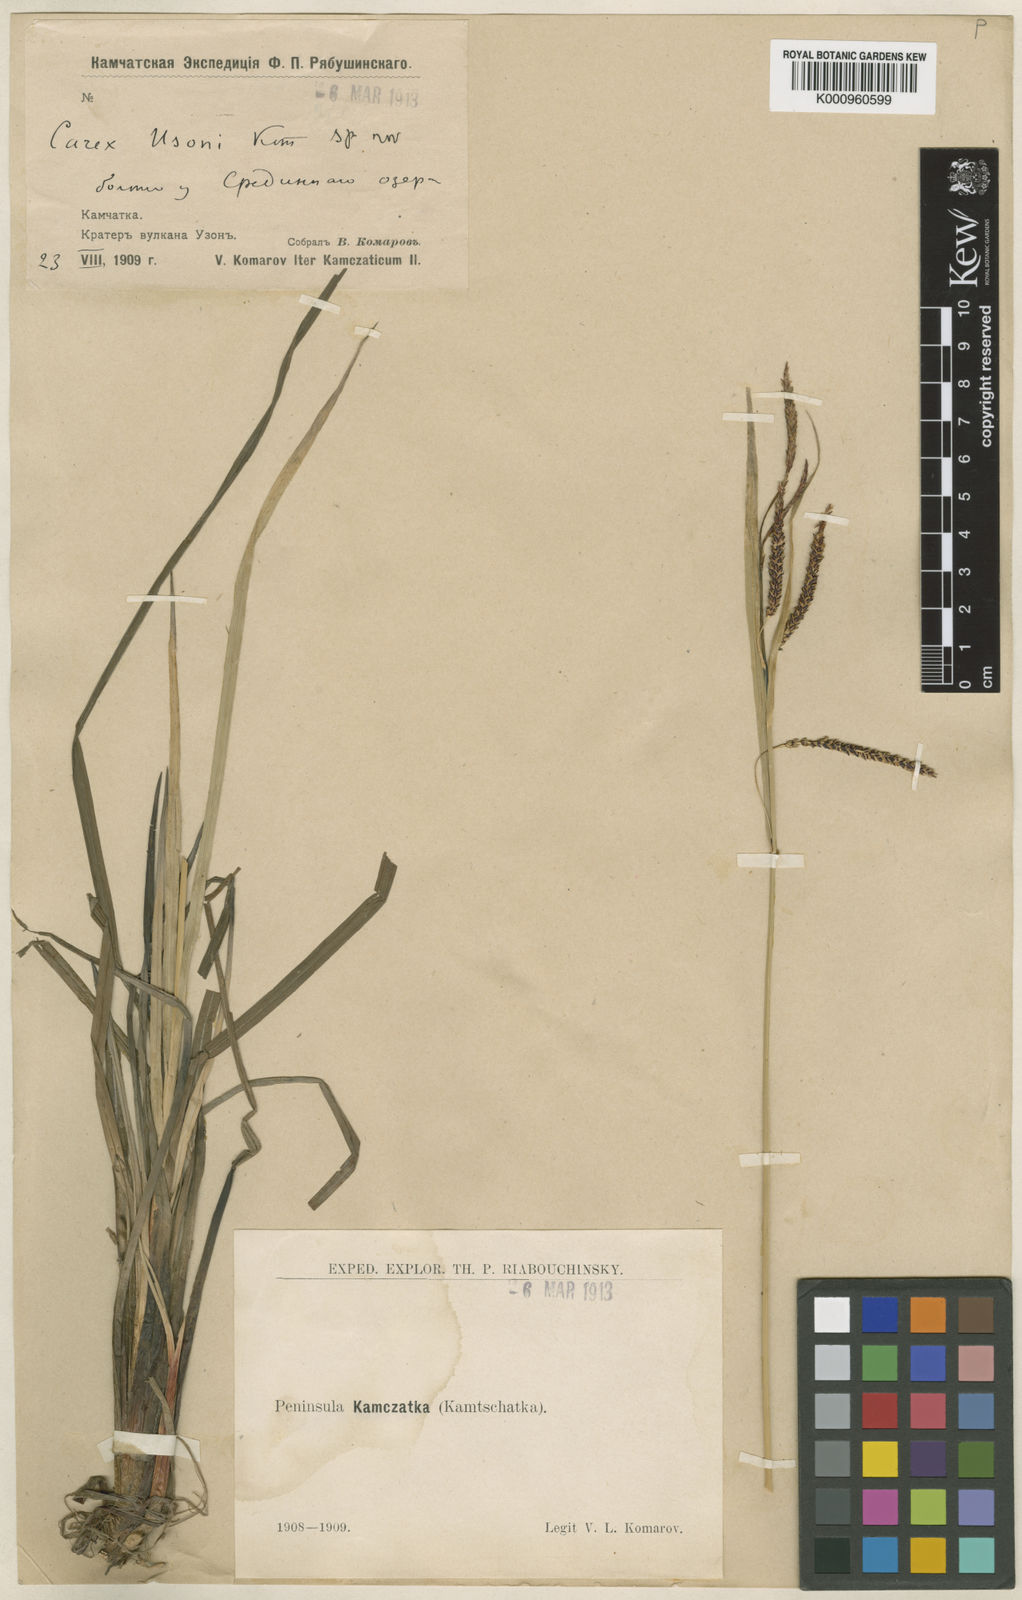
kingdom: Plantae
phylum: Tracheophyta
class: Liliopsida
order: Poales
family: Cyperaceae
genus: Carex
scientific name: Carex aquatilis
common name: Water sedge
